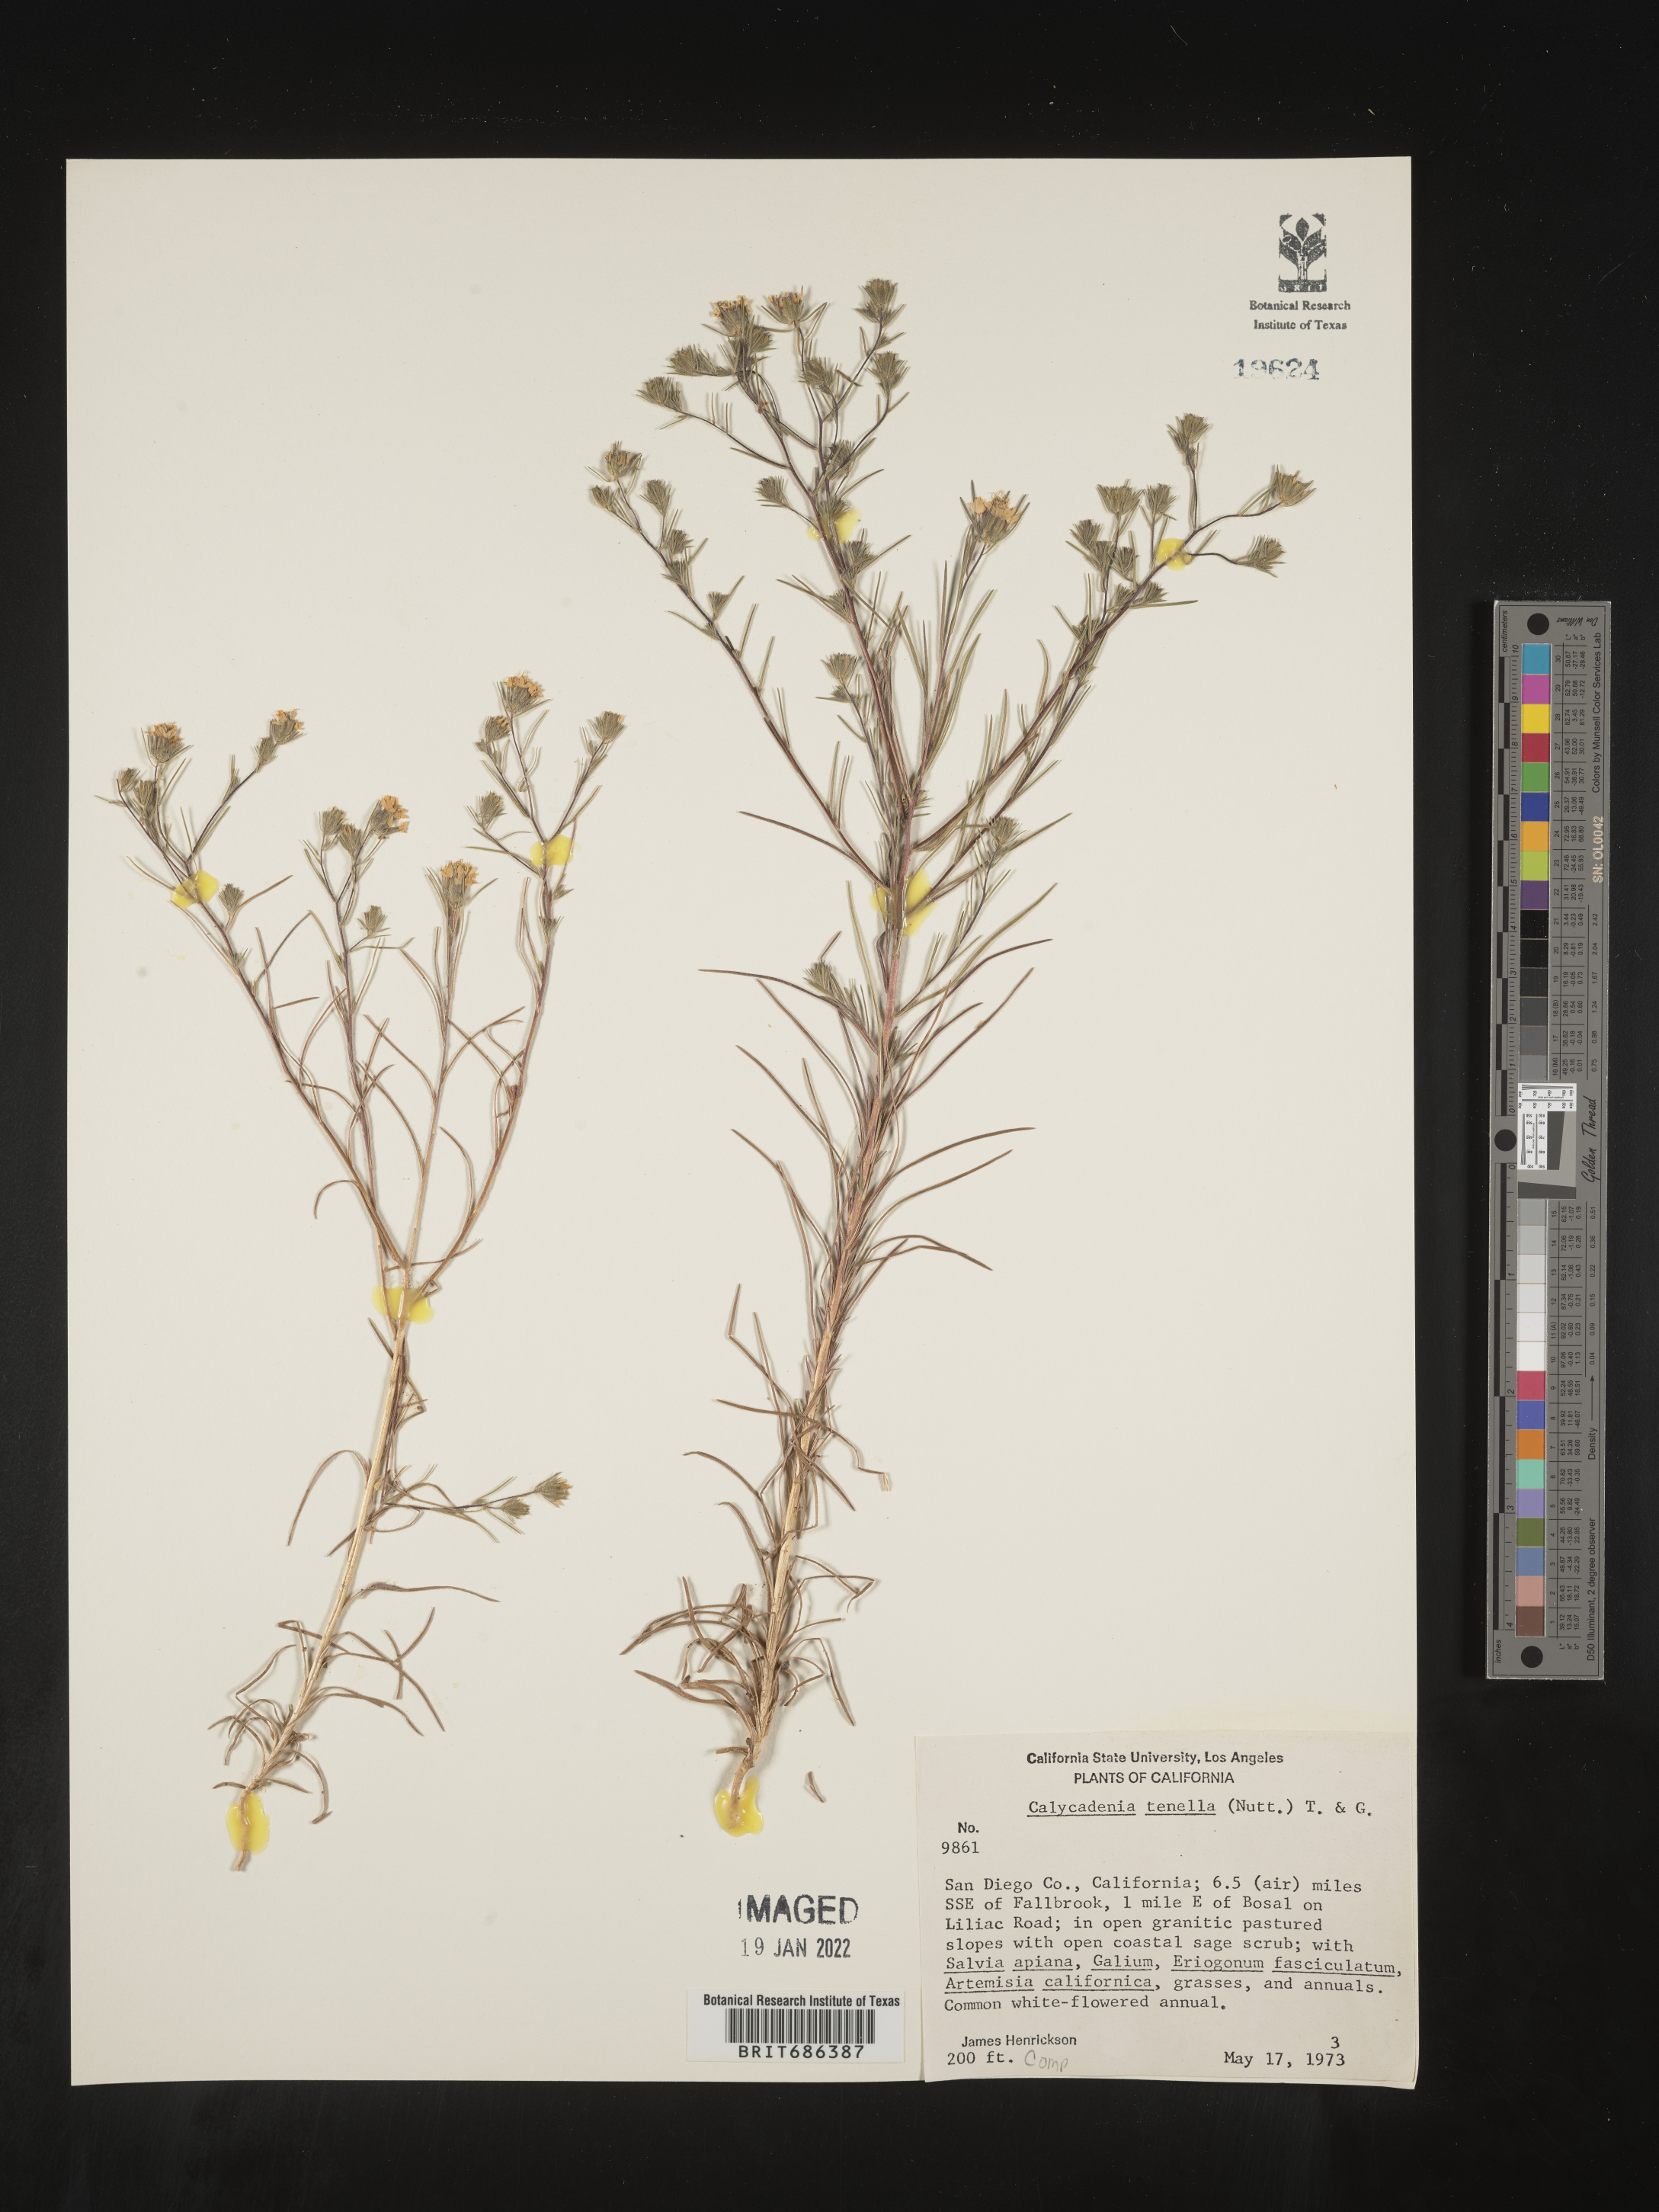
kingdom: Plantae
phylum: Tracheophyta
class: Magnoliopsida
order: Asterales
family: Asteraceae
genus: Calycadenia
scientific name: Calycadenia
